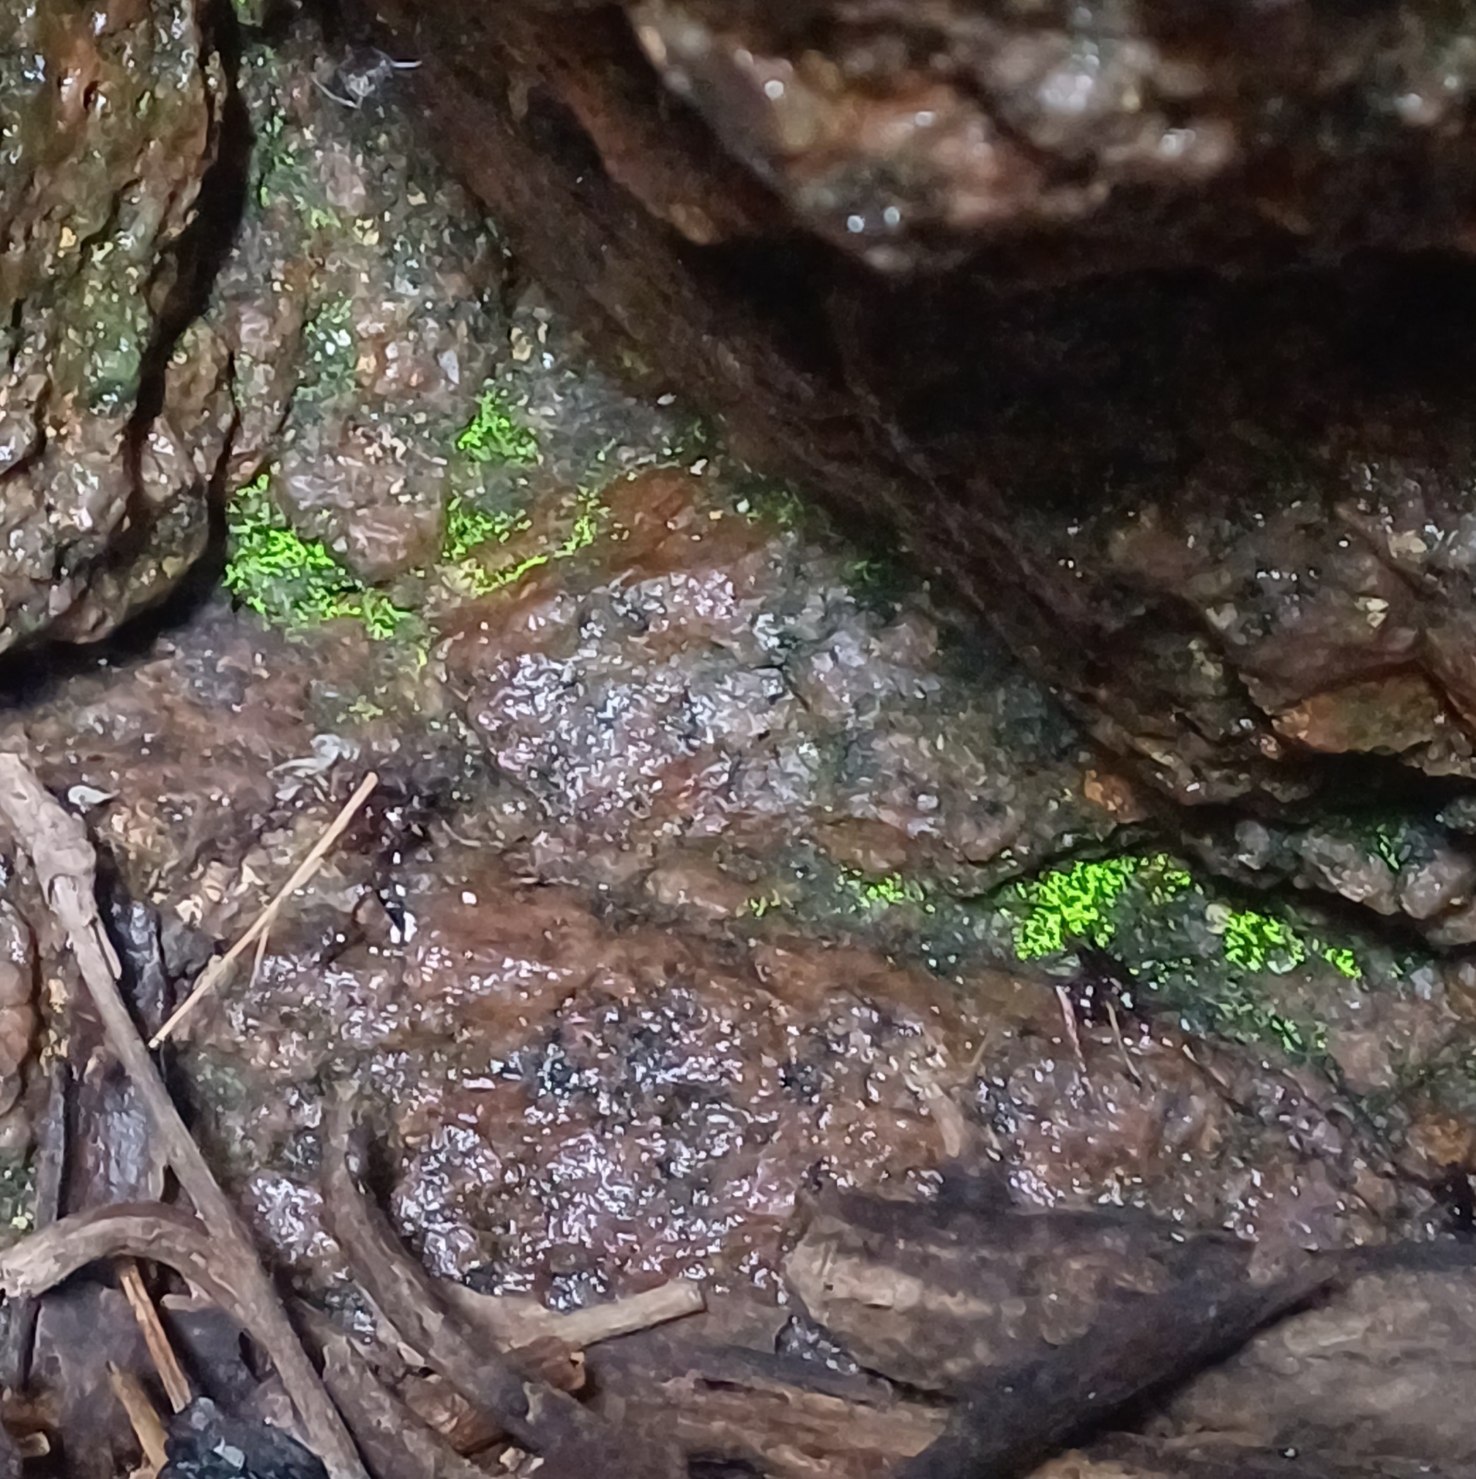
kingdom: Plantae
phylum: Bryophyta
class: Bryopsida
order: Dicranales
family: Schistostegaceae
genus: Schistostega
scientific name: Schistostega pennata
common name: Almindelig lysmos
